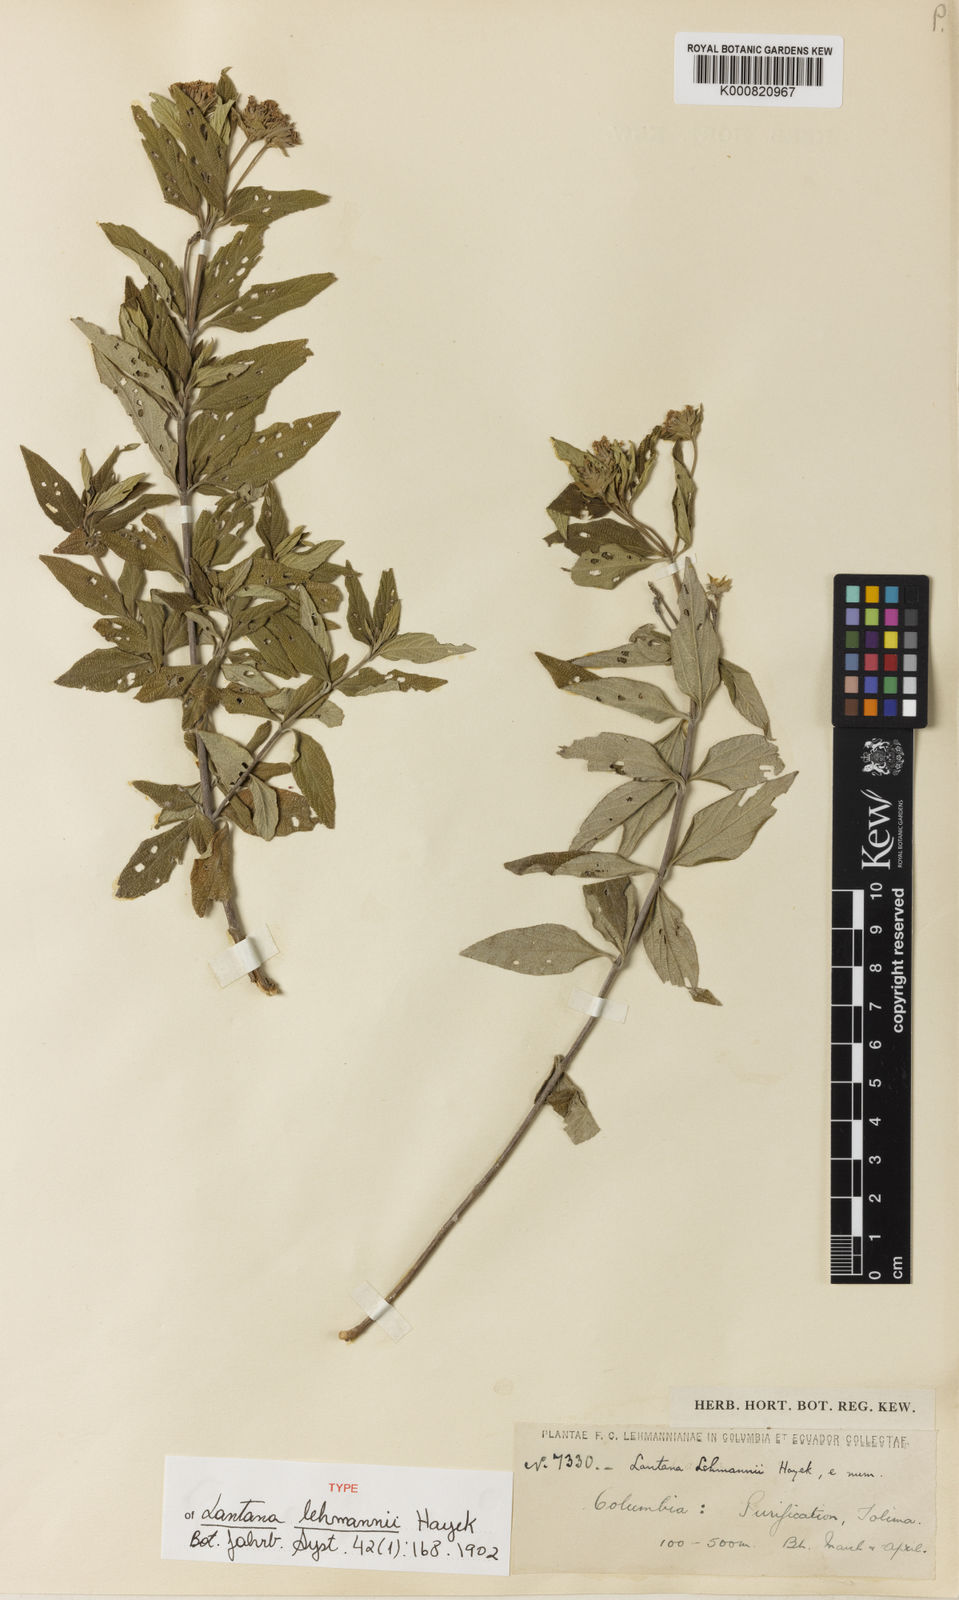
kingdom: Plantae
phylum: Tracheophyta
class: Magnoliopsida
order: Lamiales
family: Verbenaceae
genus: Lantana
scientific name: Lantana salicifolia
